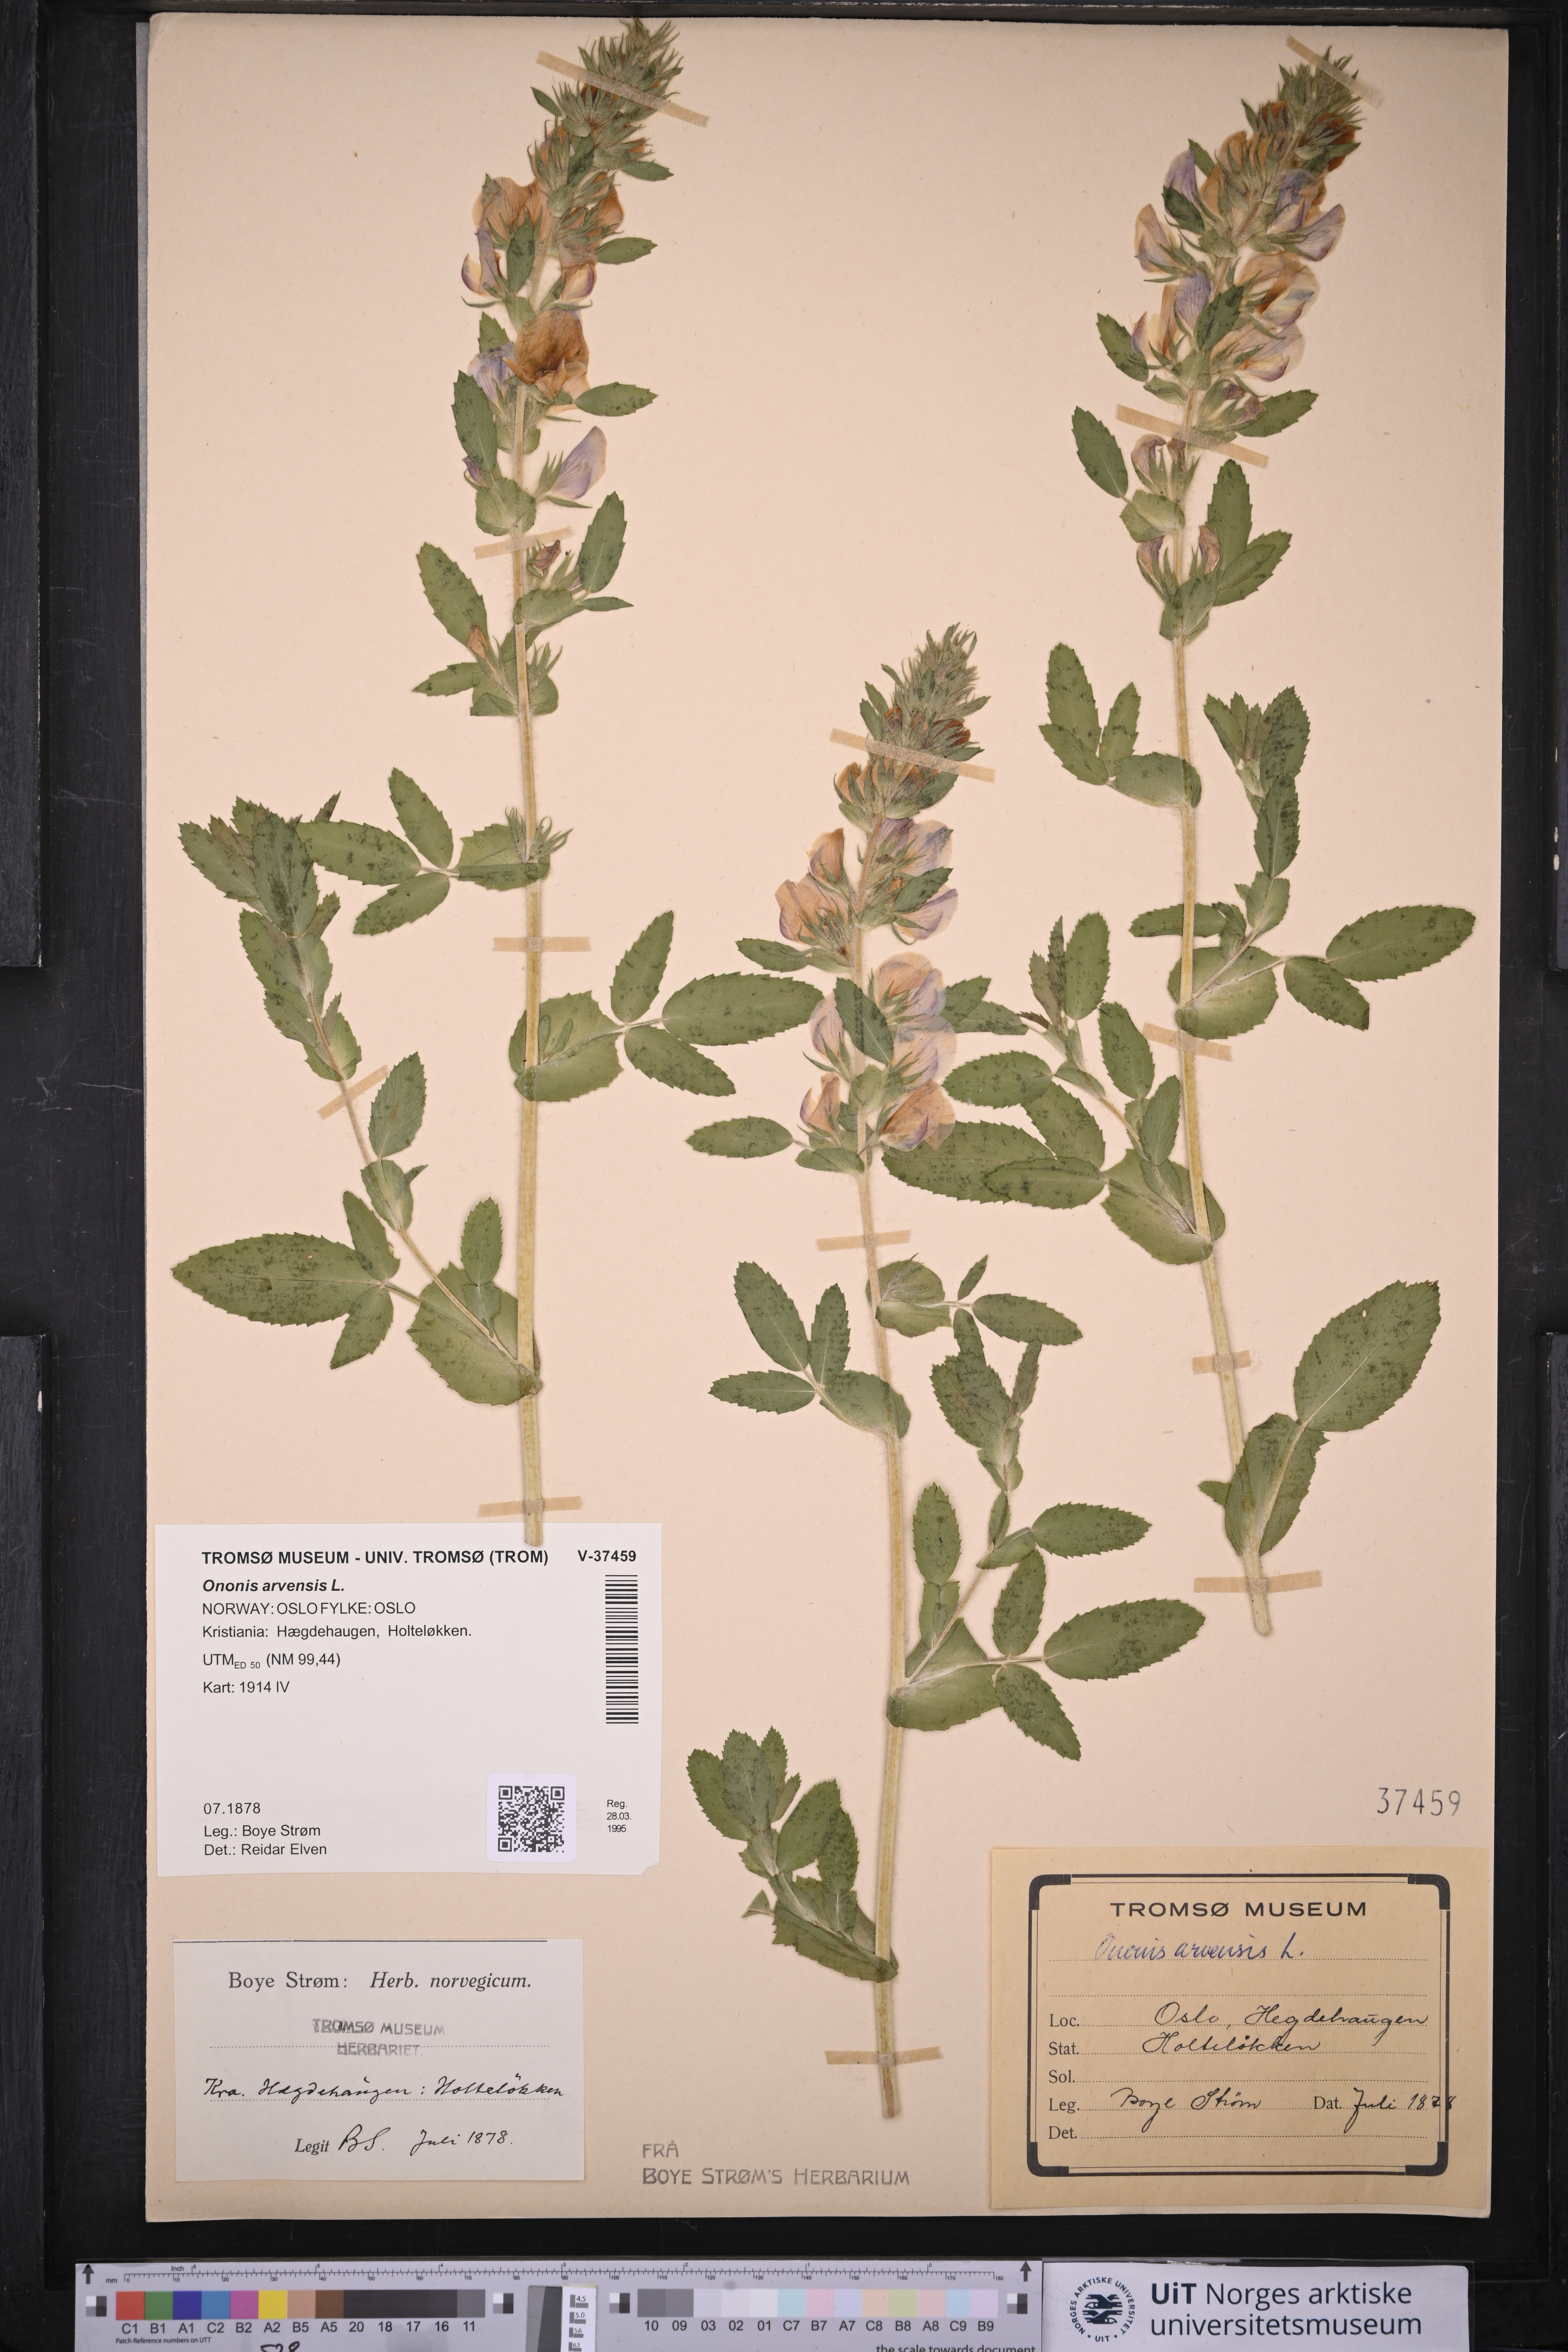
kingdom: Plantae
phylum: Tracheophyta
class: Magnoliopsida
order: Fabales
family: Fabaceae
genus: Ononis
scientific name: Ononis arvensis
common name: Field restharrow
